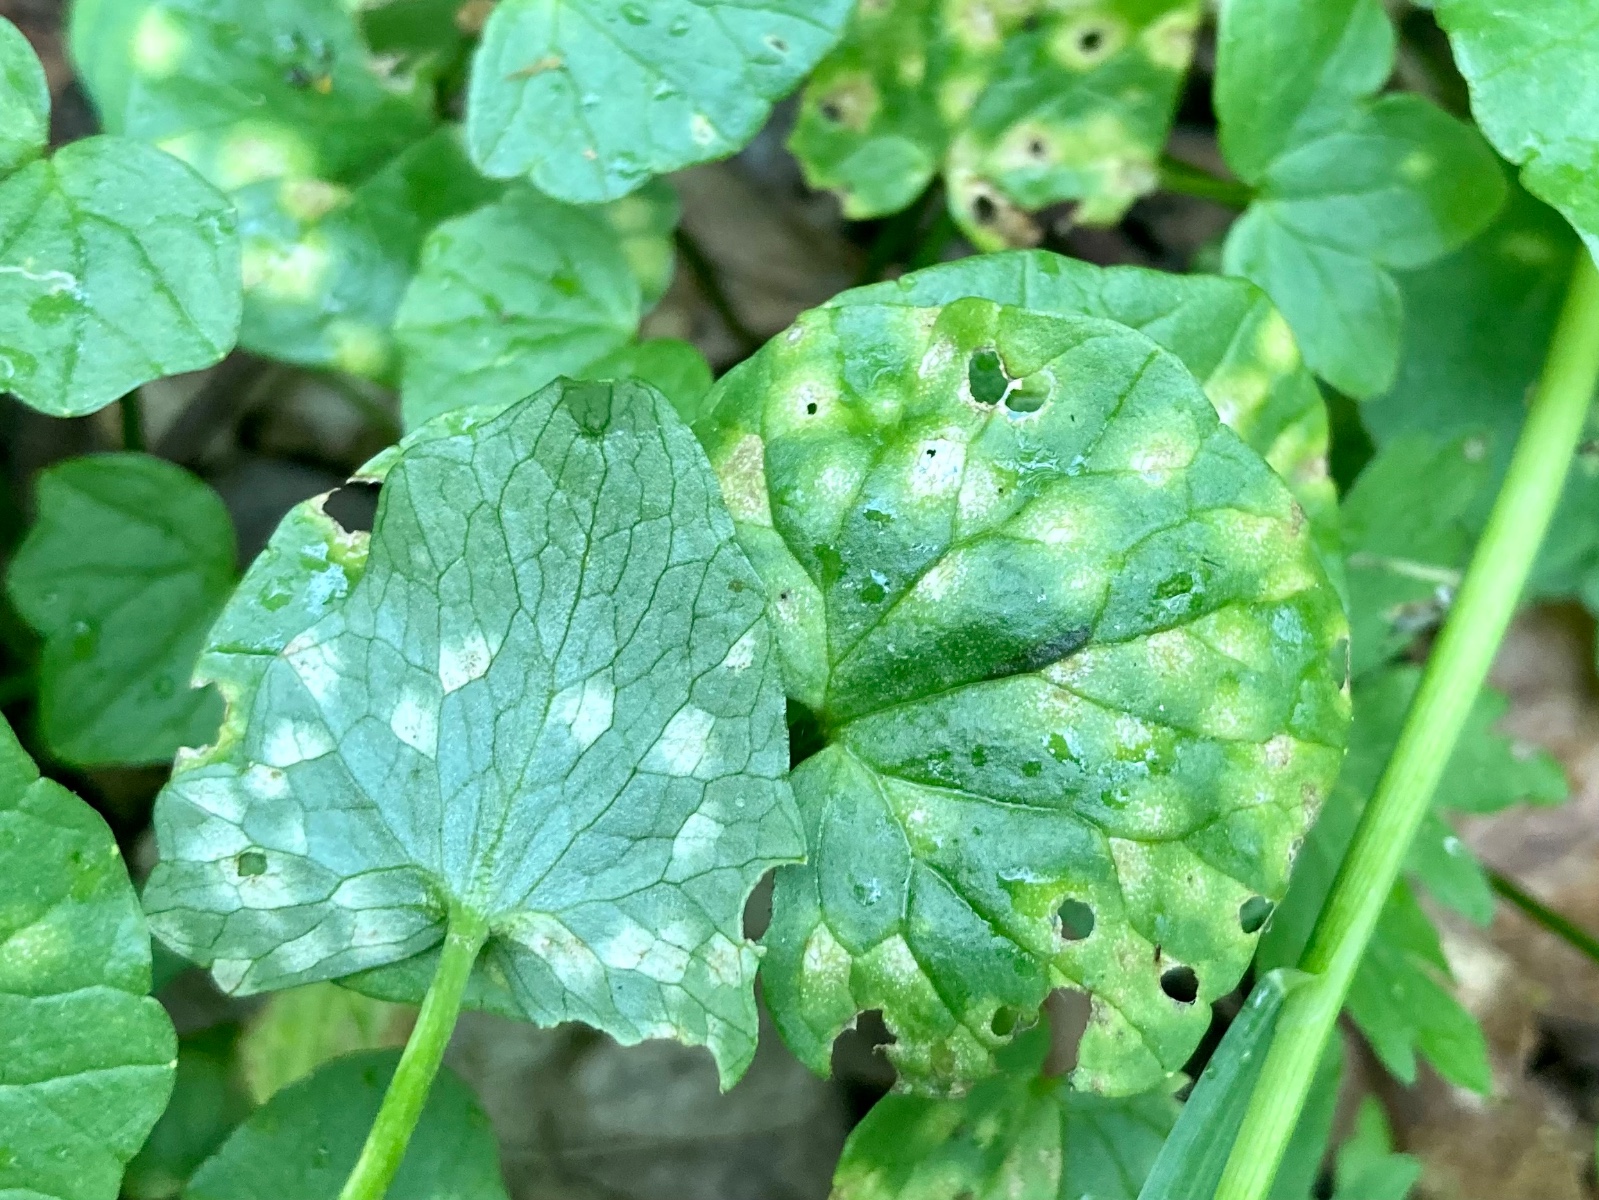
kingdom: Fungi
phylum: Basidiomycota
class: Exobasidiomycetes
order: Entylomatales
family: Entylomataceae
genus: Entyloma
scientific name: Entyloma ficariae
